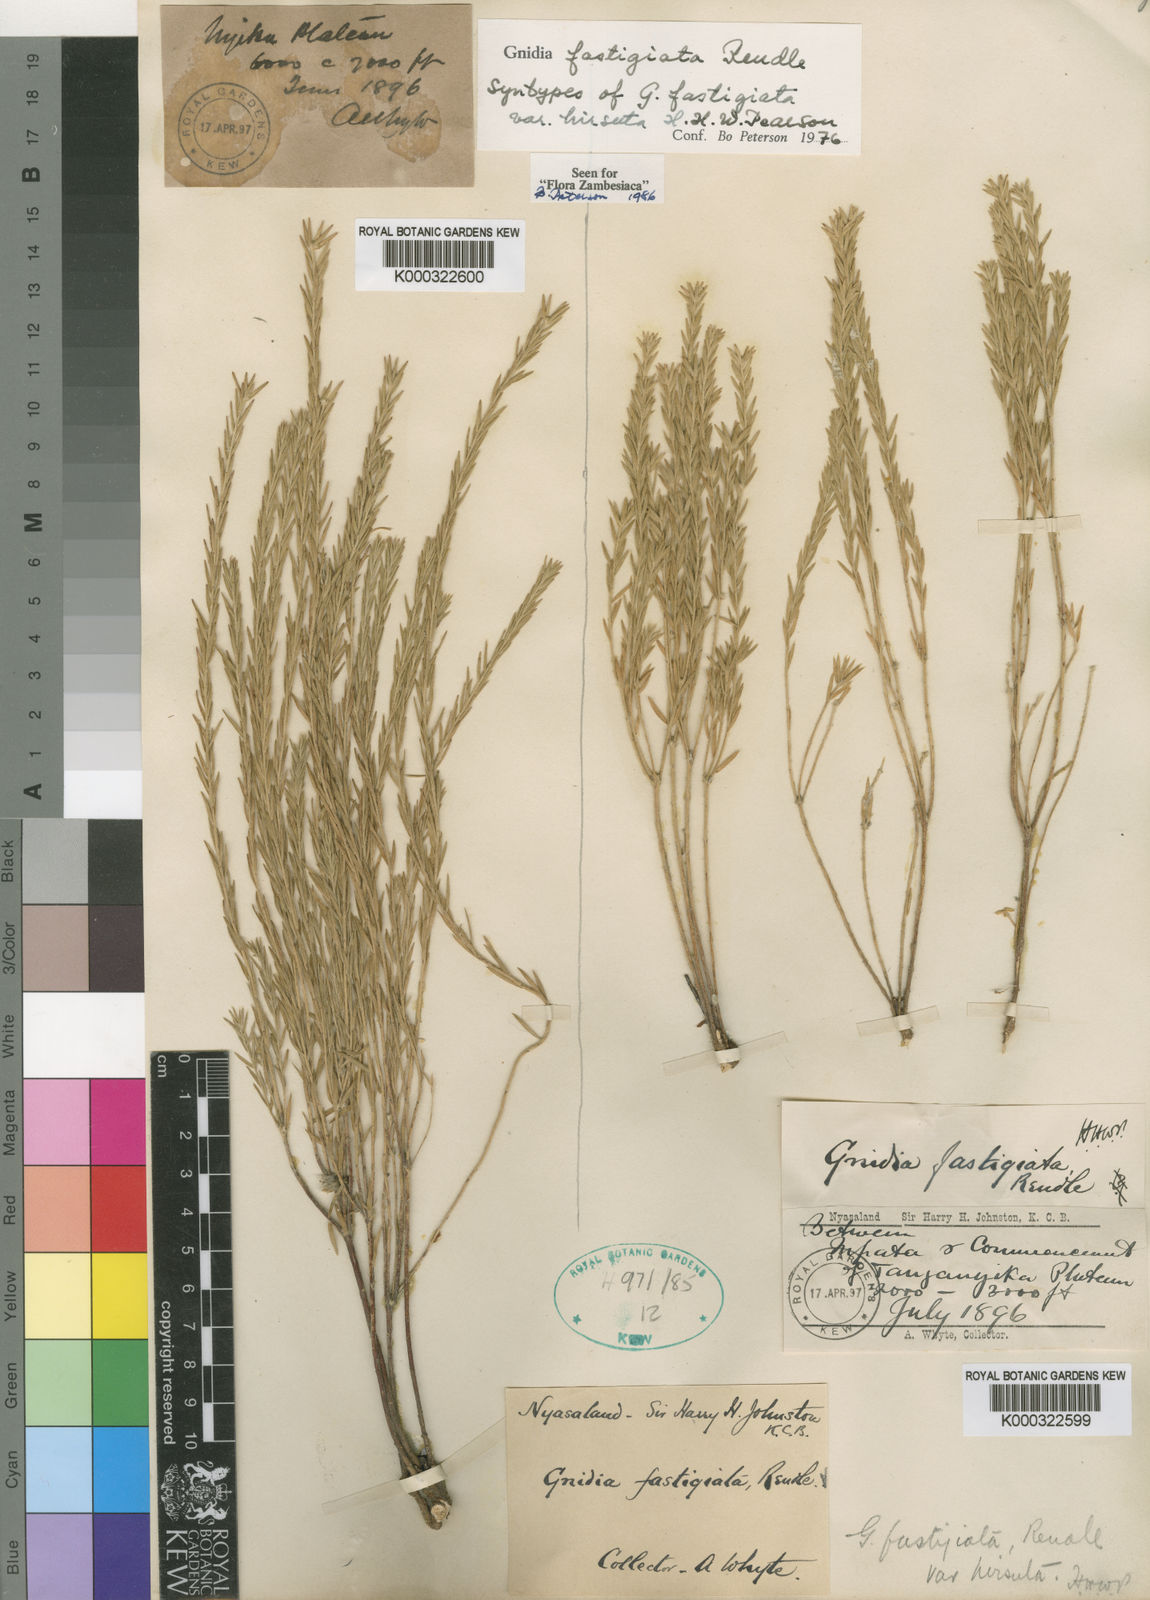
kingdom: Plantae
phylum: Tracheophyta
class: Magnoliopsida
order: Malvales
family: Thymelaeaceae
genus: Gnidia
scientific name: Gnidia fastigiata
